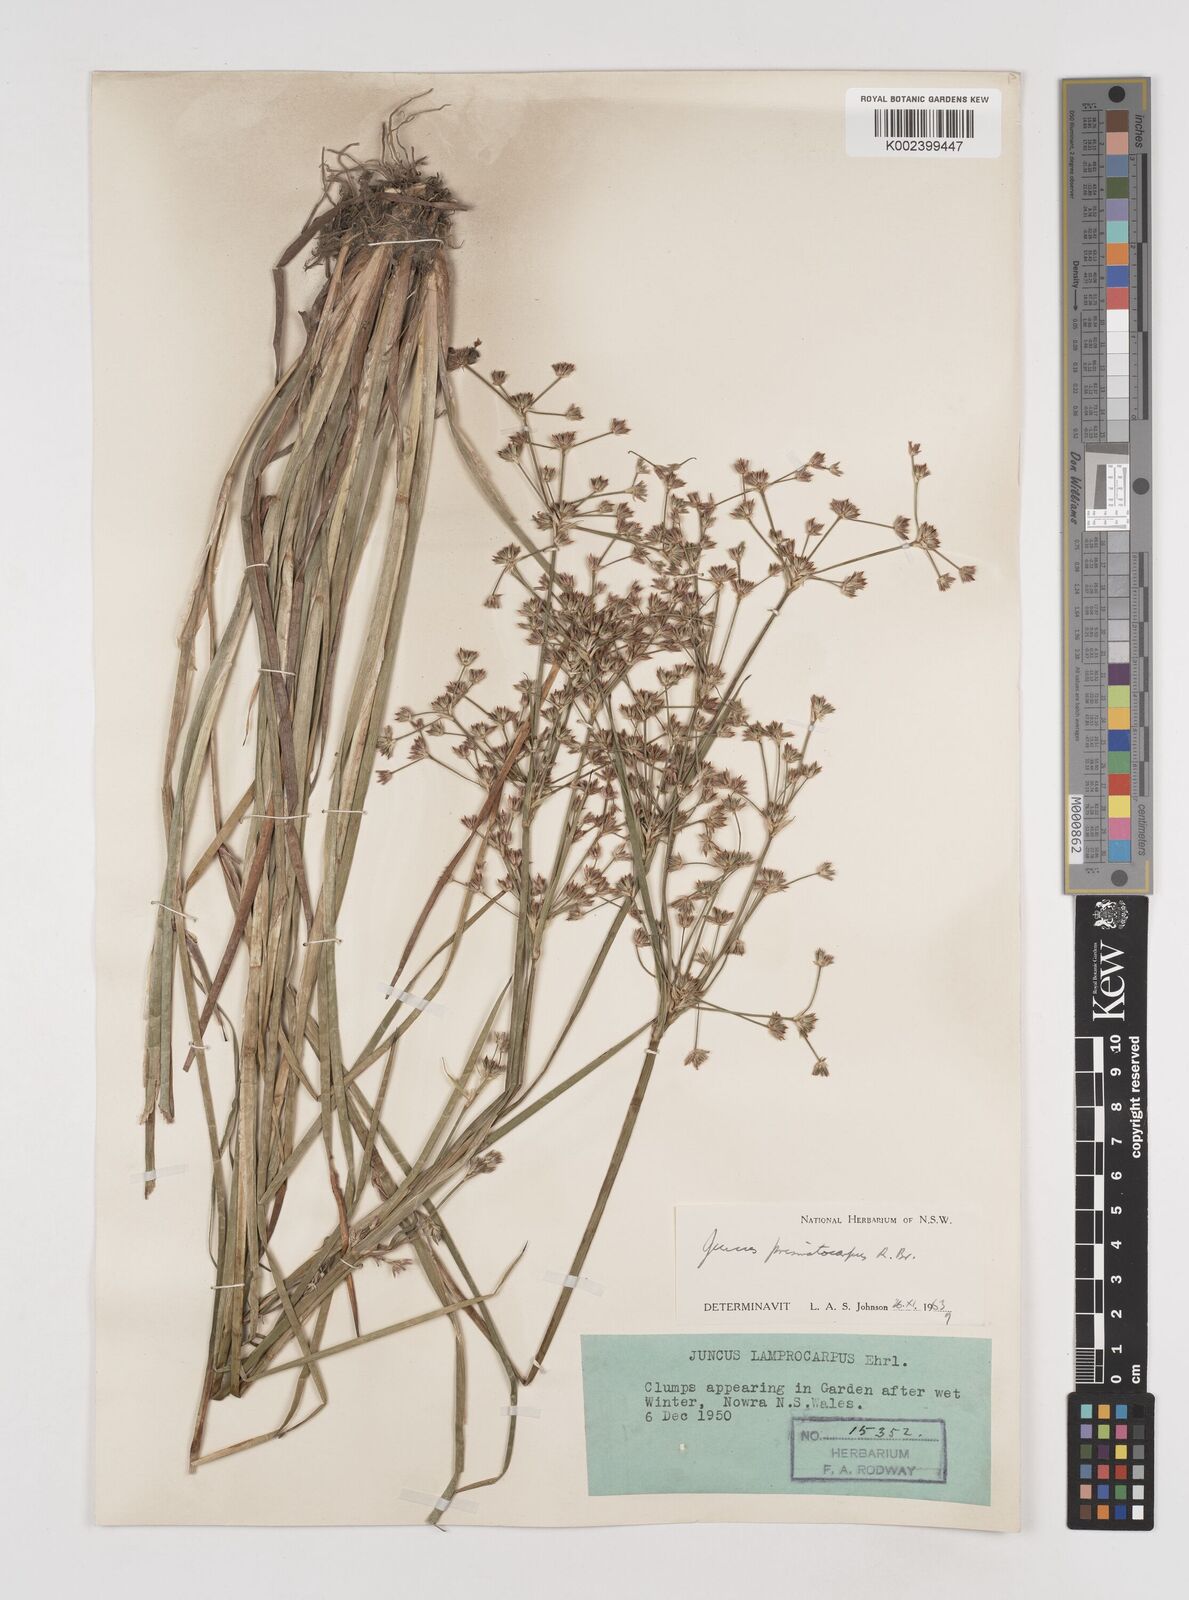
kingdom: Plantae
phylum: Tracheophyta
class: Liliopsida
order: Poales
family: Juncaceae
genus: Juncus
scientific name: Juncus prismatocarpus
